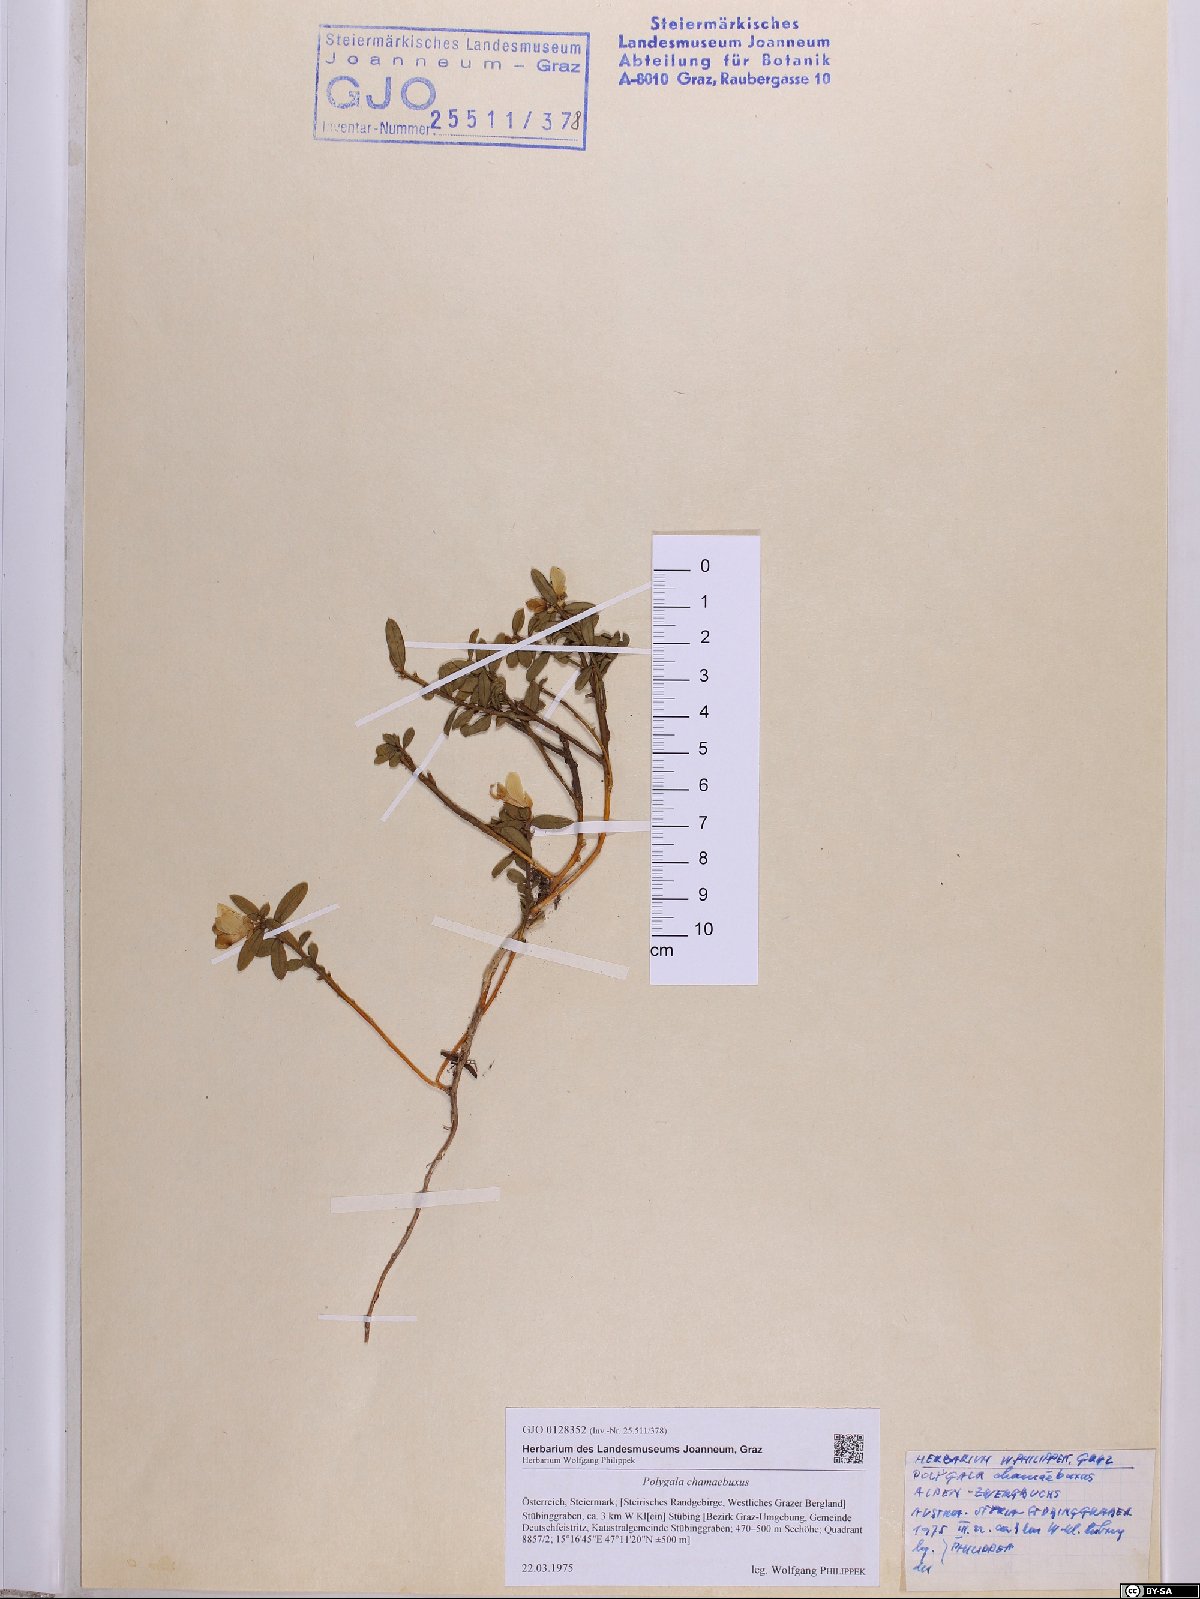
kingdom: Plantae
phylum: Tracheophyta
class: Magnoliopsida
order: Fabales
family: Polygalaceae
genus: Polygaloides
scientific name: Polygaloides chamaebuxus
